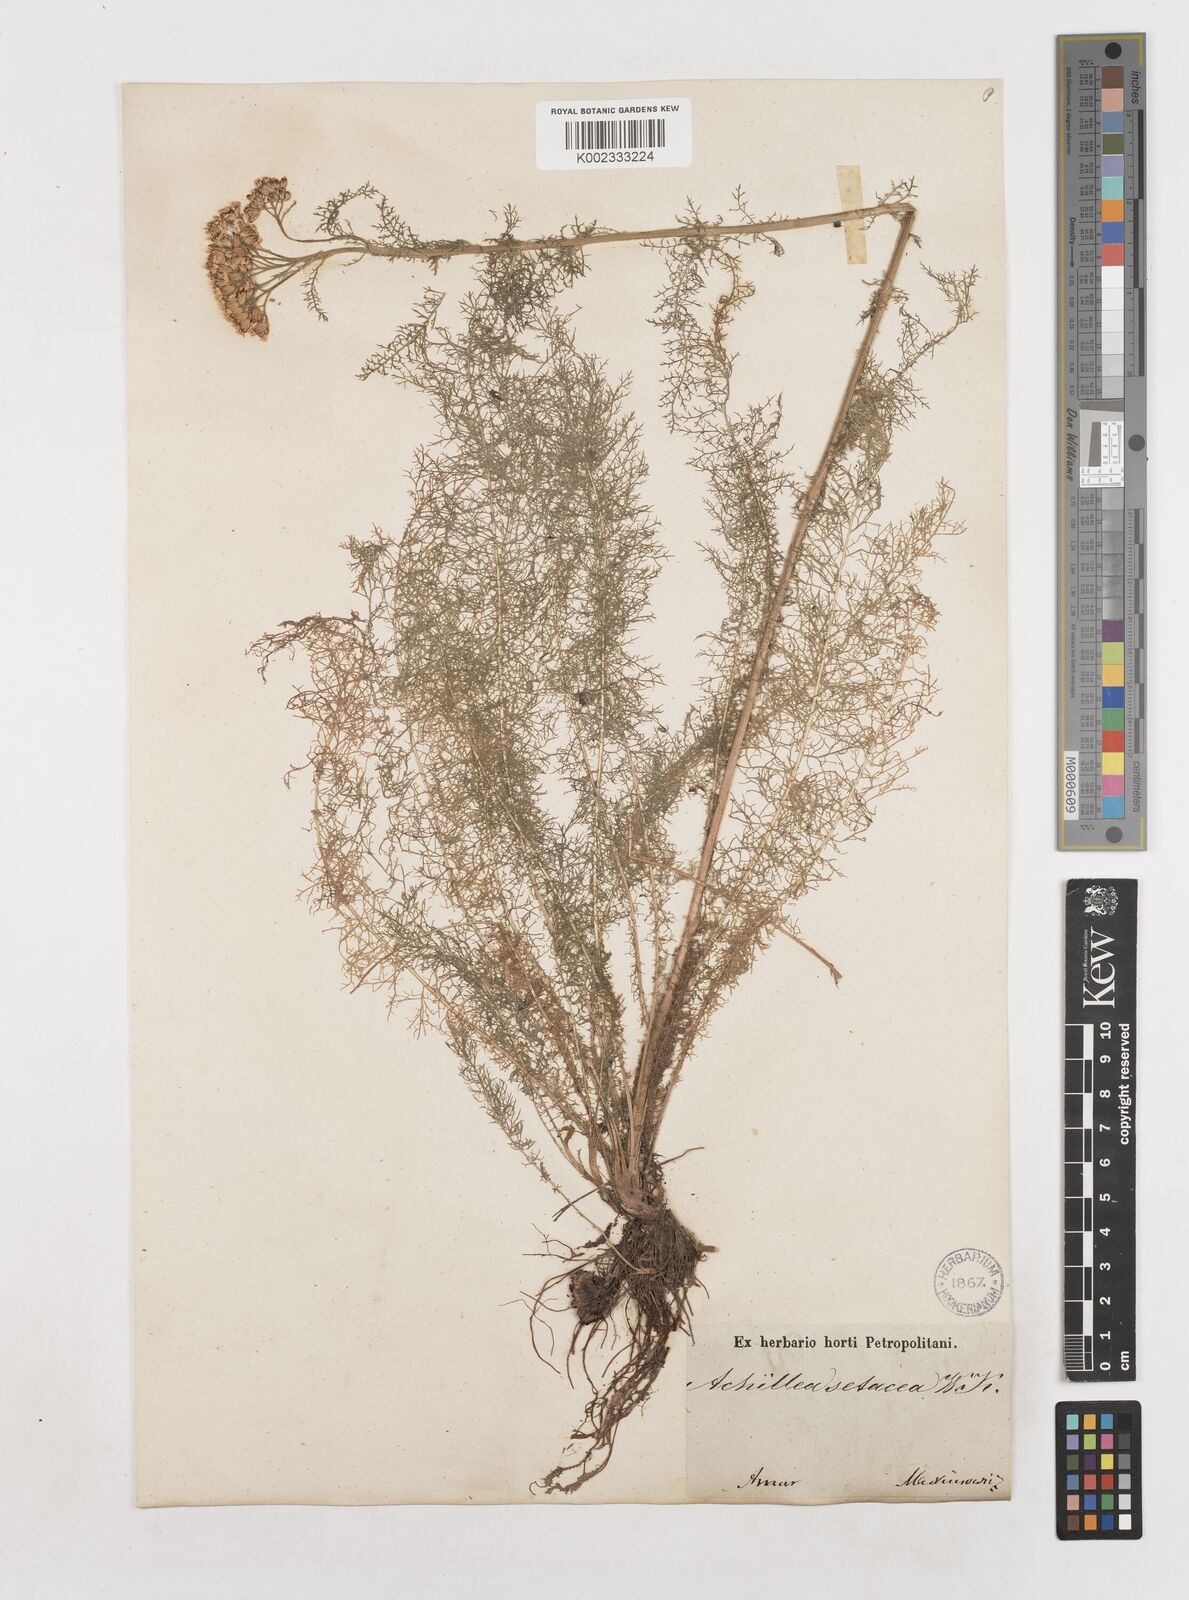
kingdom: Plantae
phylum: Tracheophyta
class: Magnoliopsida
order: Asterales
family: Asteraceae
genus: Achillea
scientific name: Achillea millefolium
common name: Yarrow
